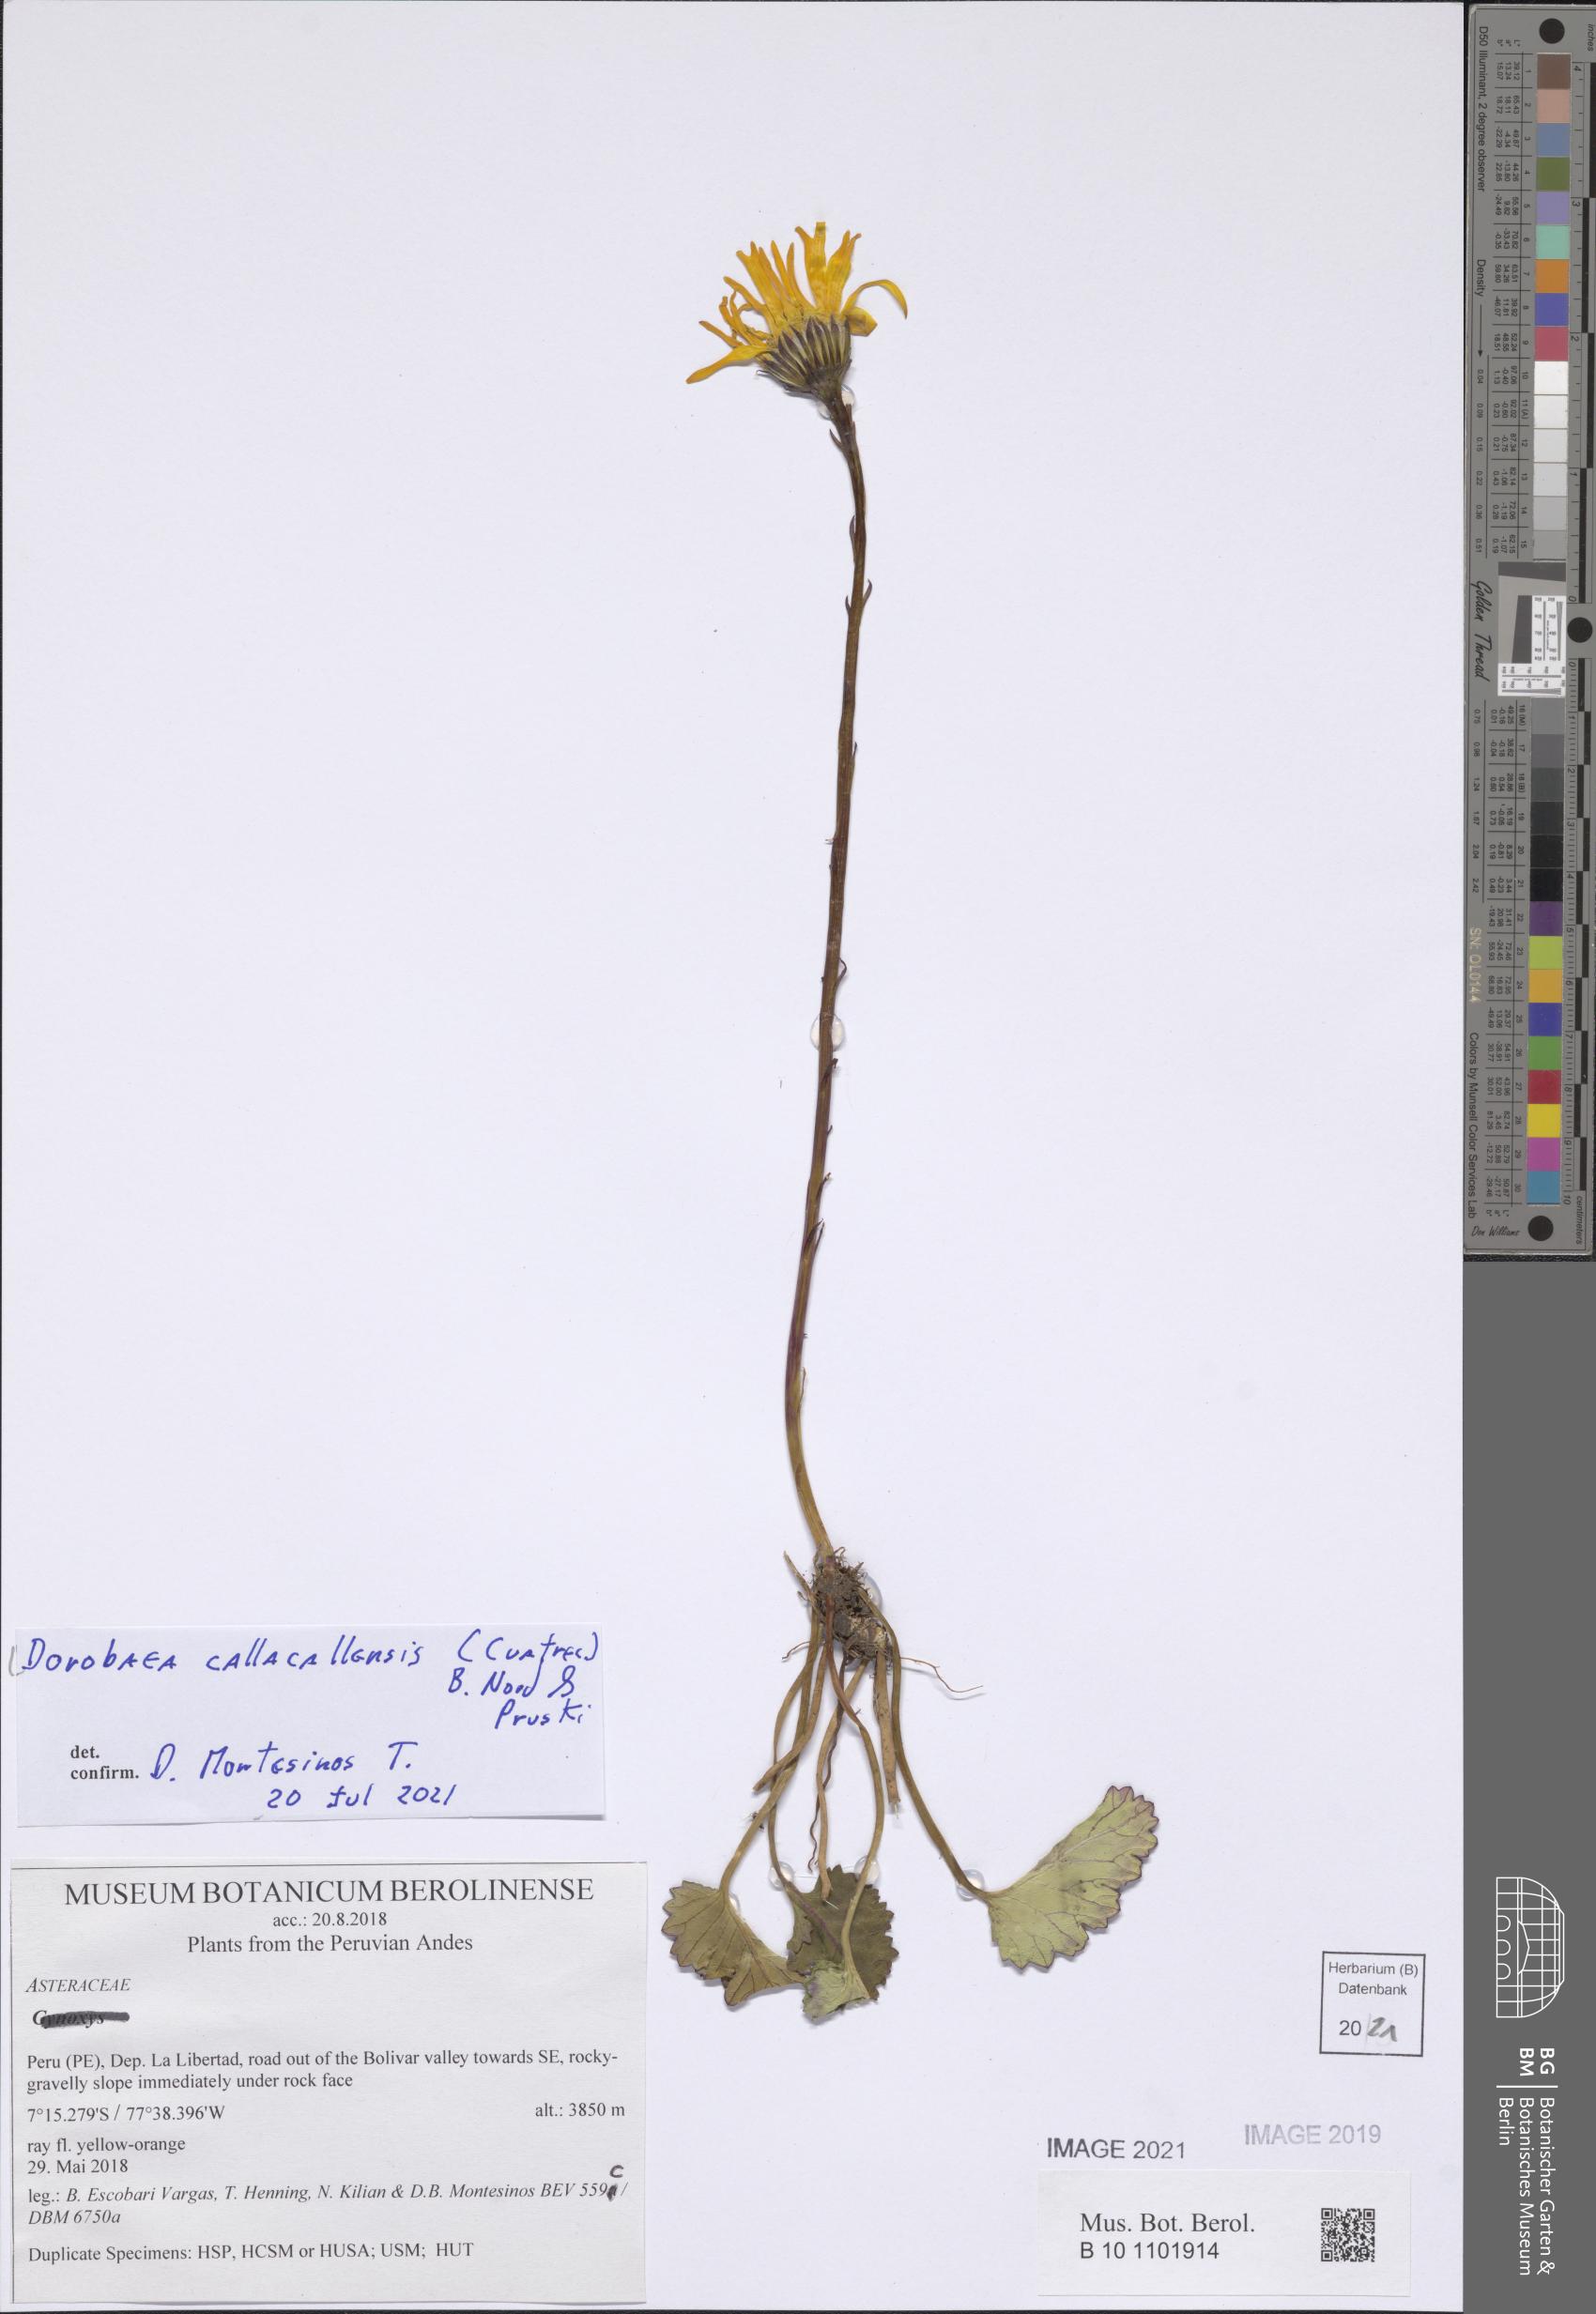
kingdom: Plantae
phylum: Tracheophyta
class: Magnoliopsida
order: Asterales
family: Asteraceae
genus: Dorobaea
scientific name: Dorobaea callacallensis
